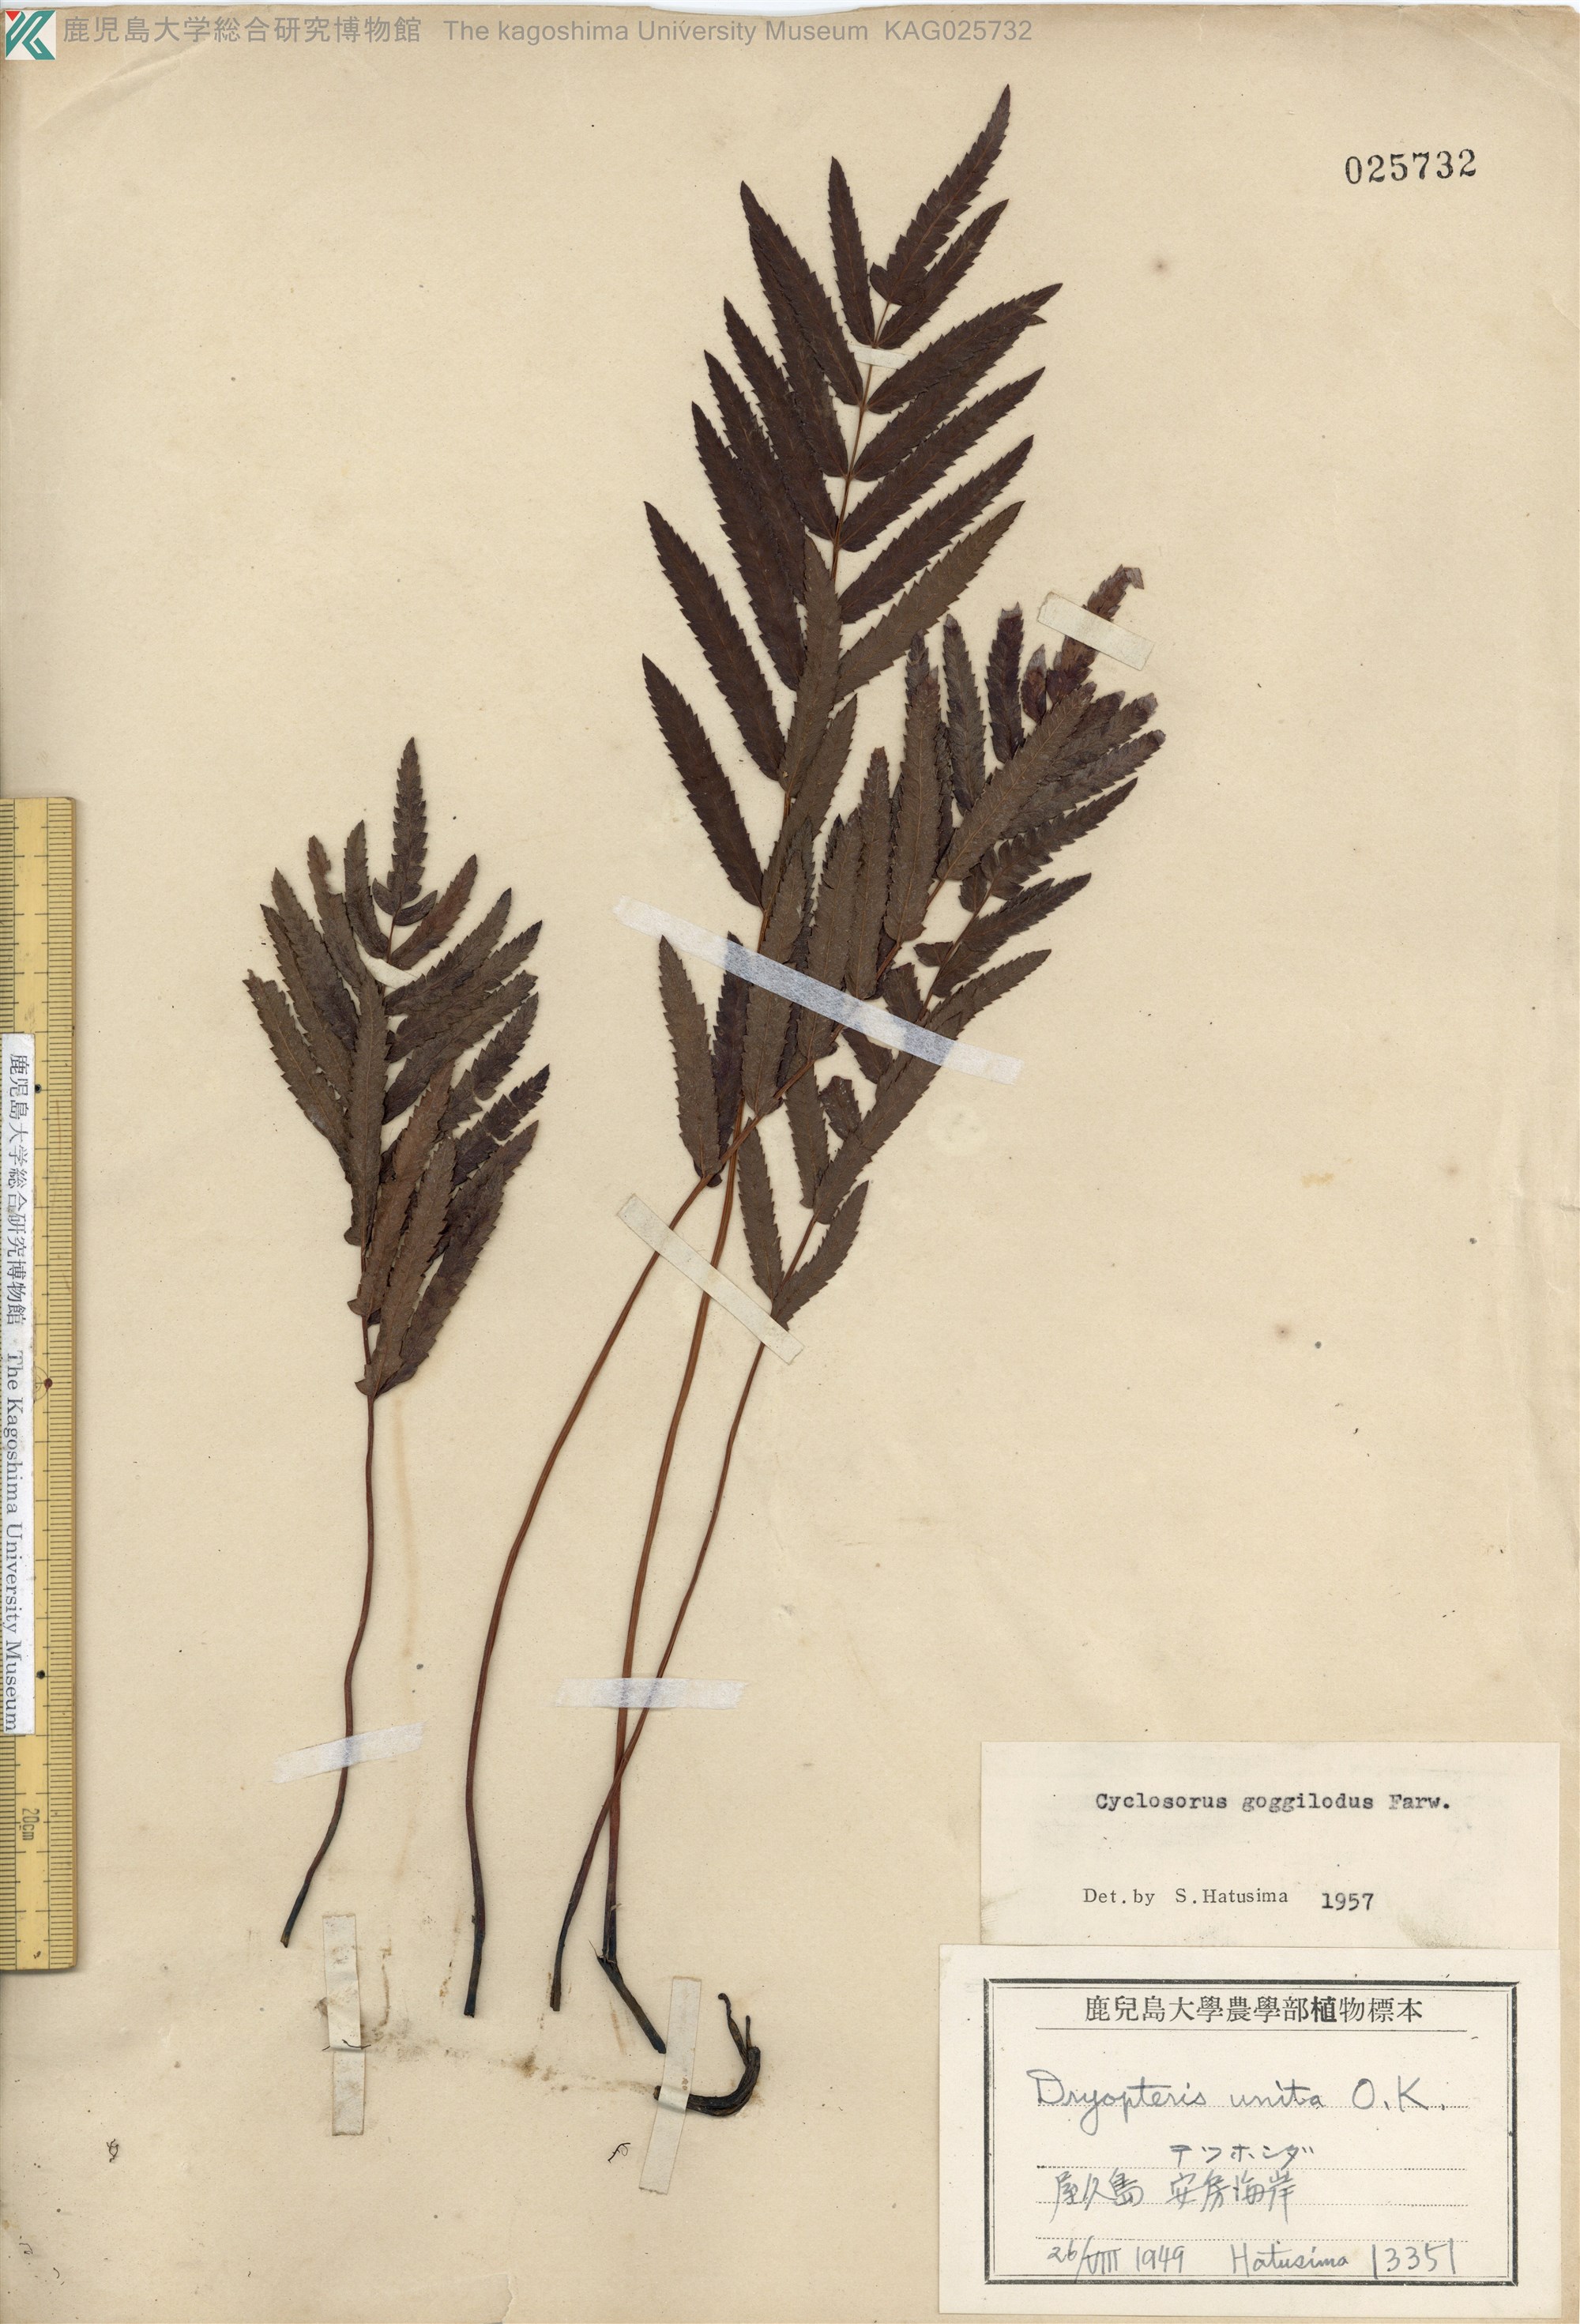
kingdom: Plantae
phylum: Tracheophyta
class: Polypodiopsida
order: Polypodiales
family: Thelypteridaceae
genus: Cyclosorus
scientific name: Cyclosorus interruptus
